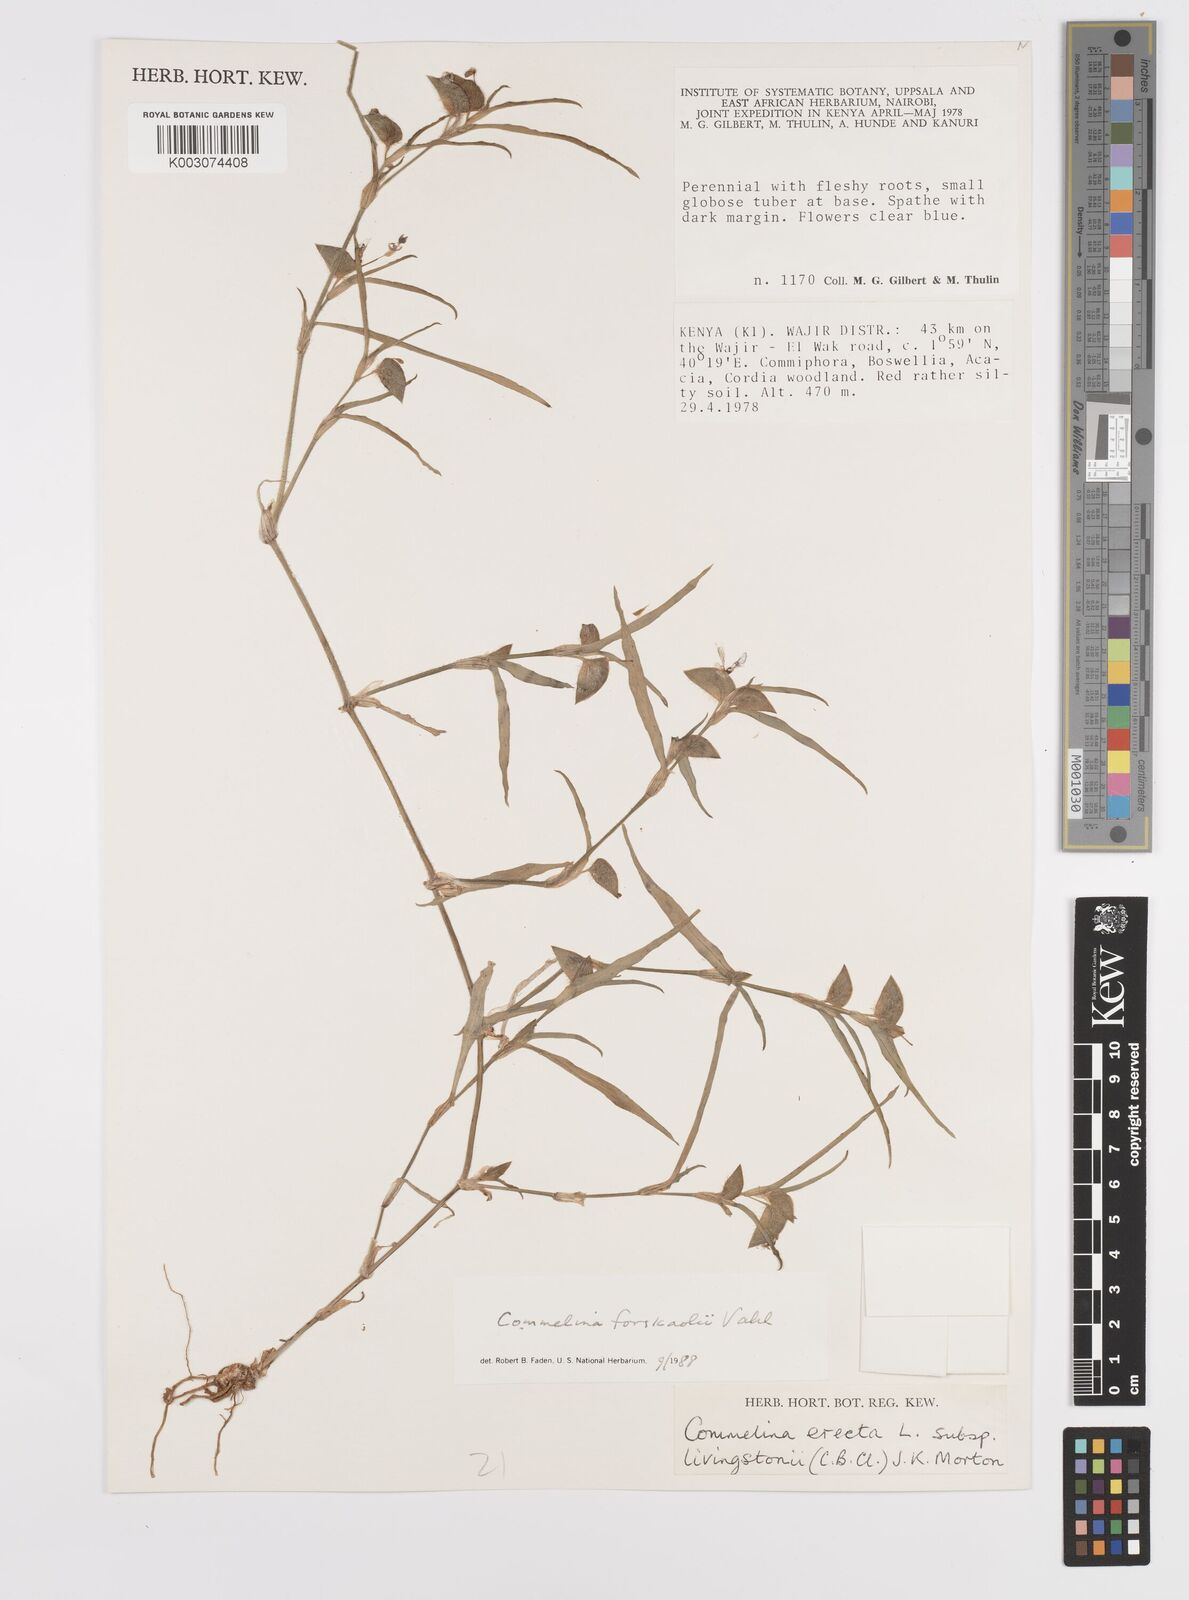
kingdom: Plantae
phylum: Tracheophyta
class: Liliopsida
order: Commelinales
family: Commelinaceae
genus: Commelina
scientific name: Commelina forskaolii
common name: Rat's ear
